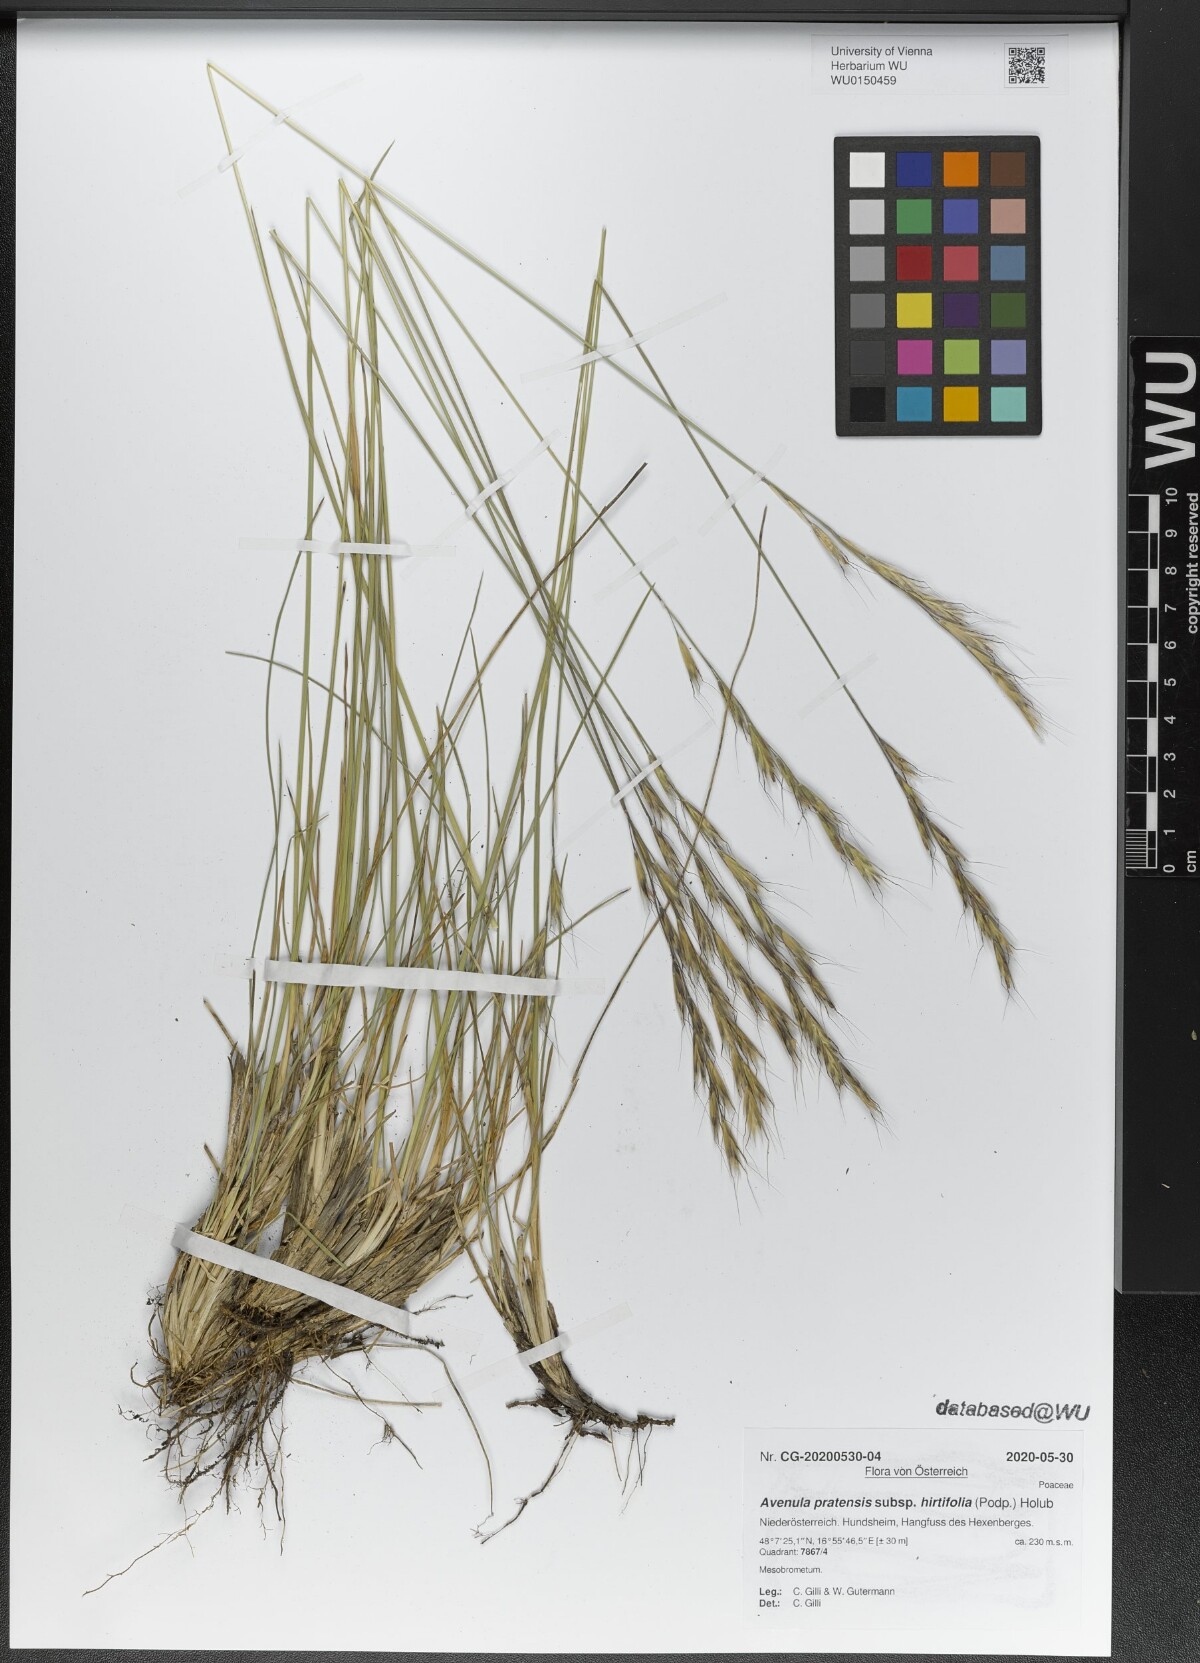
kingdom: Plantae
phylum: Tracheophyta
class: Liliopsida
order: Poales
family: Poaceae
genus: Helictochloa
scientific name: Helictochloa pratensis
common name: Meadow oat grass
